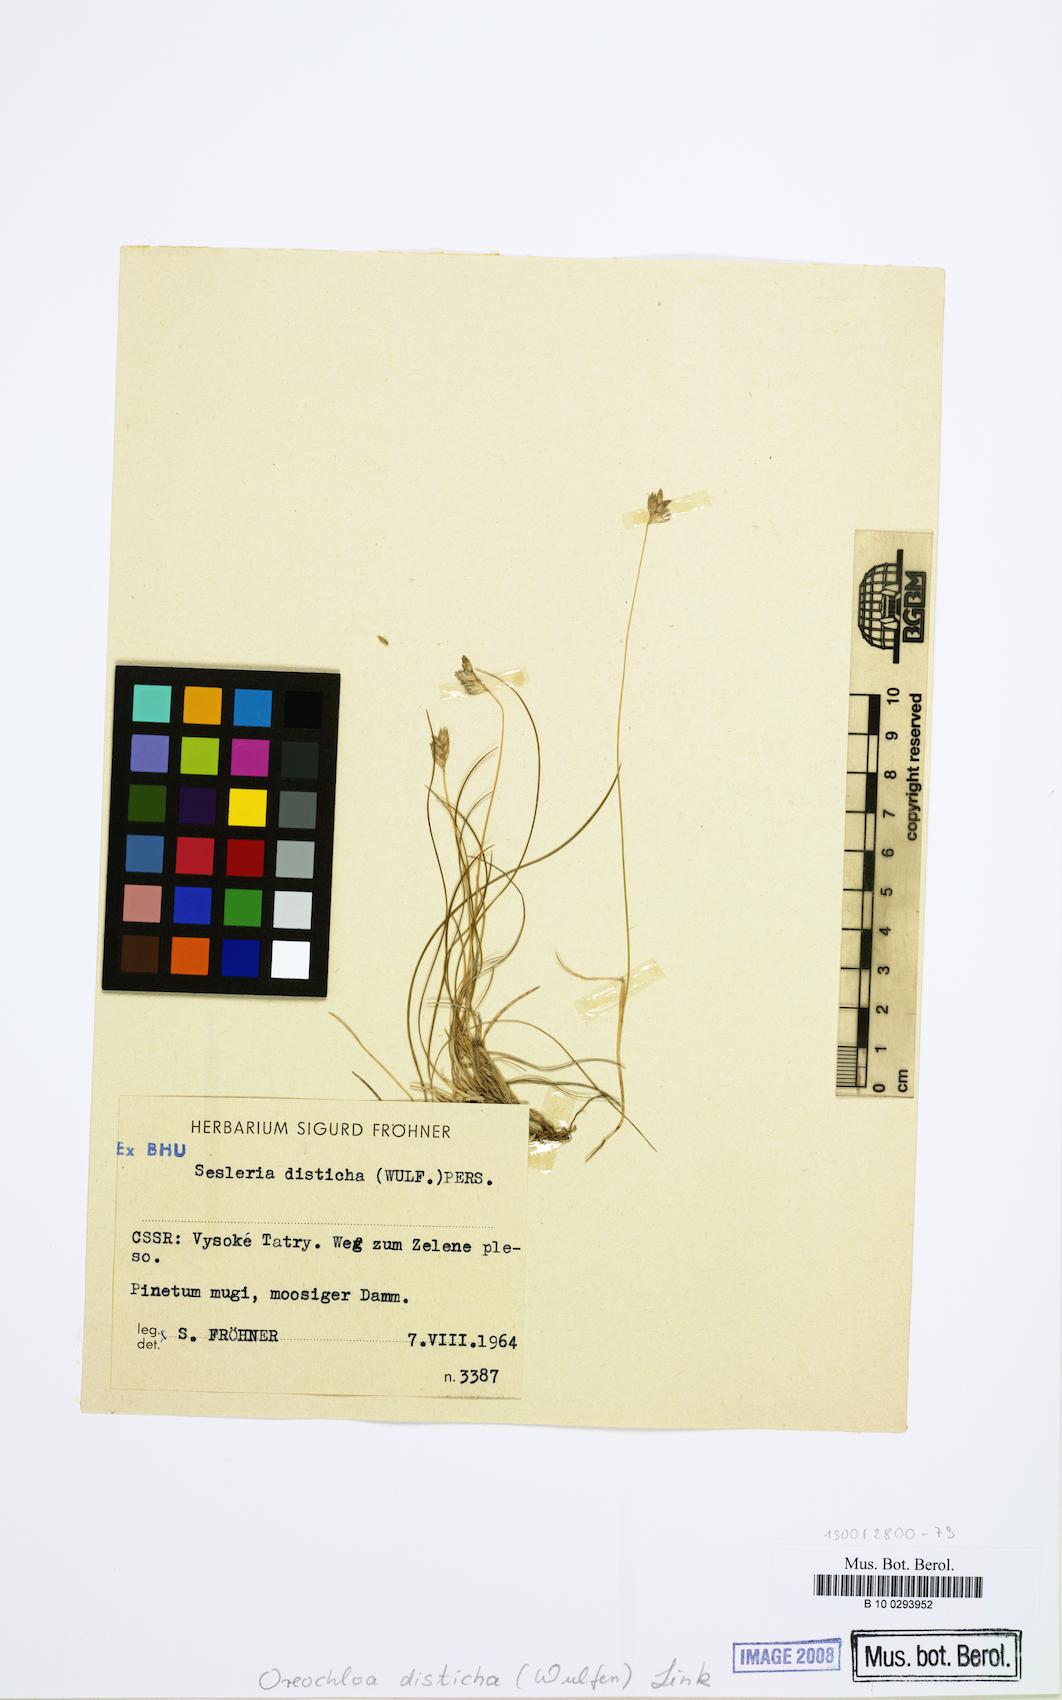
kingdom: Plantae
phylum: Tracheophyta
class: Liliopsida
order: Poales
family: Poaceae
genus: Oreochloa
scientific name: Oreochloa disticha
